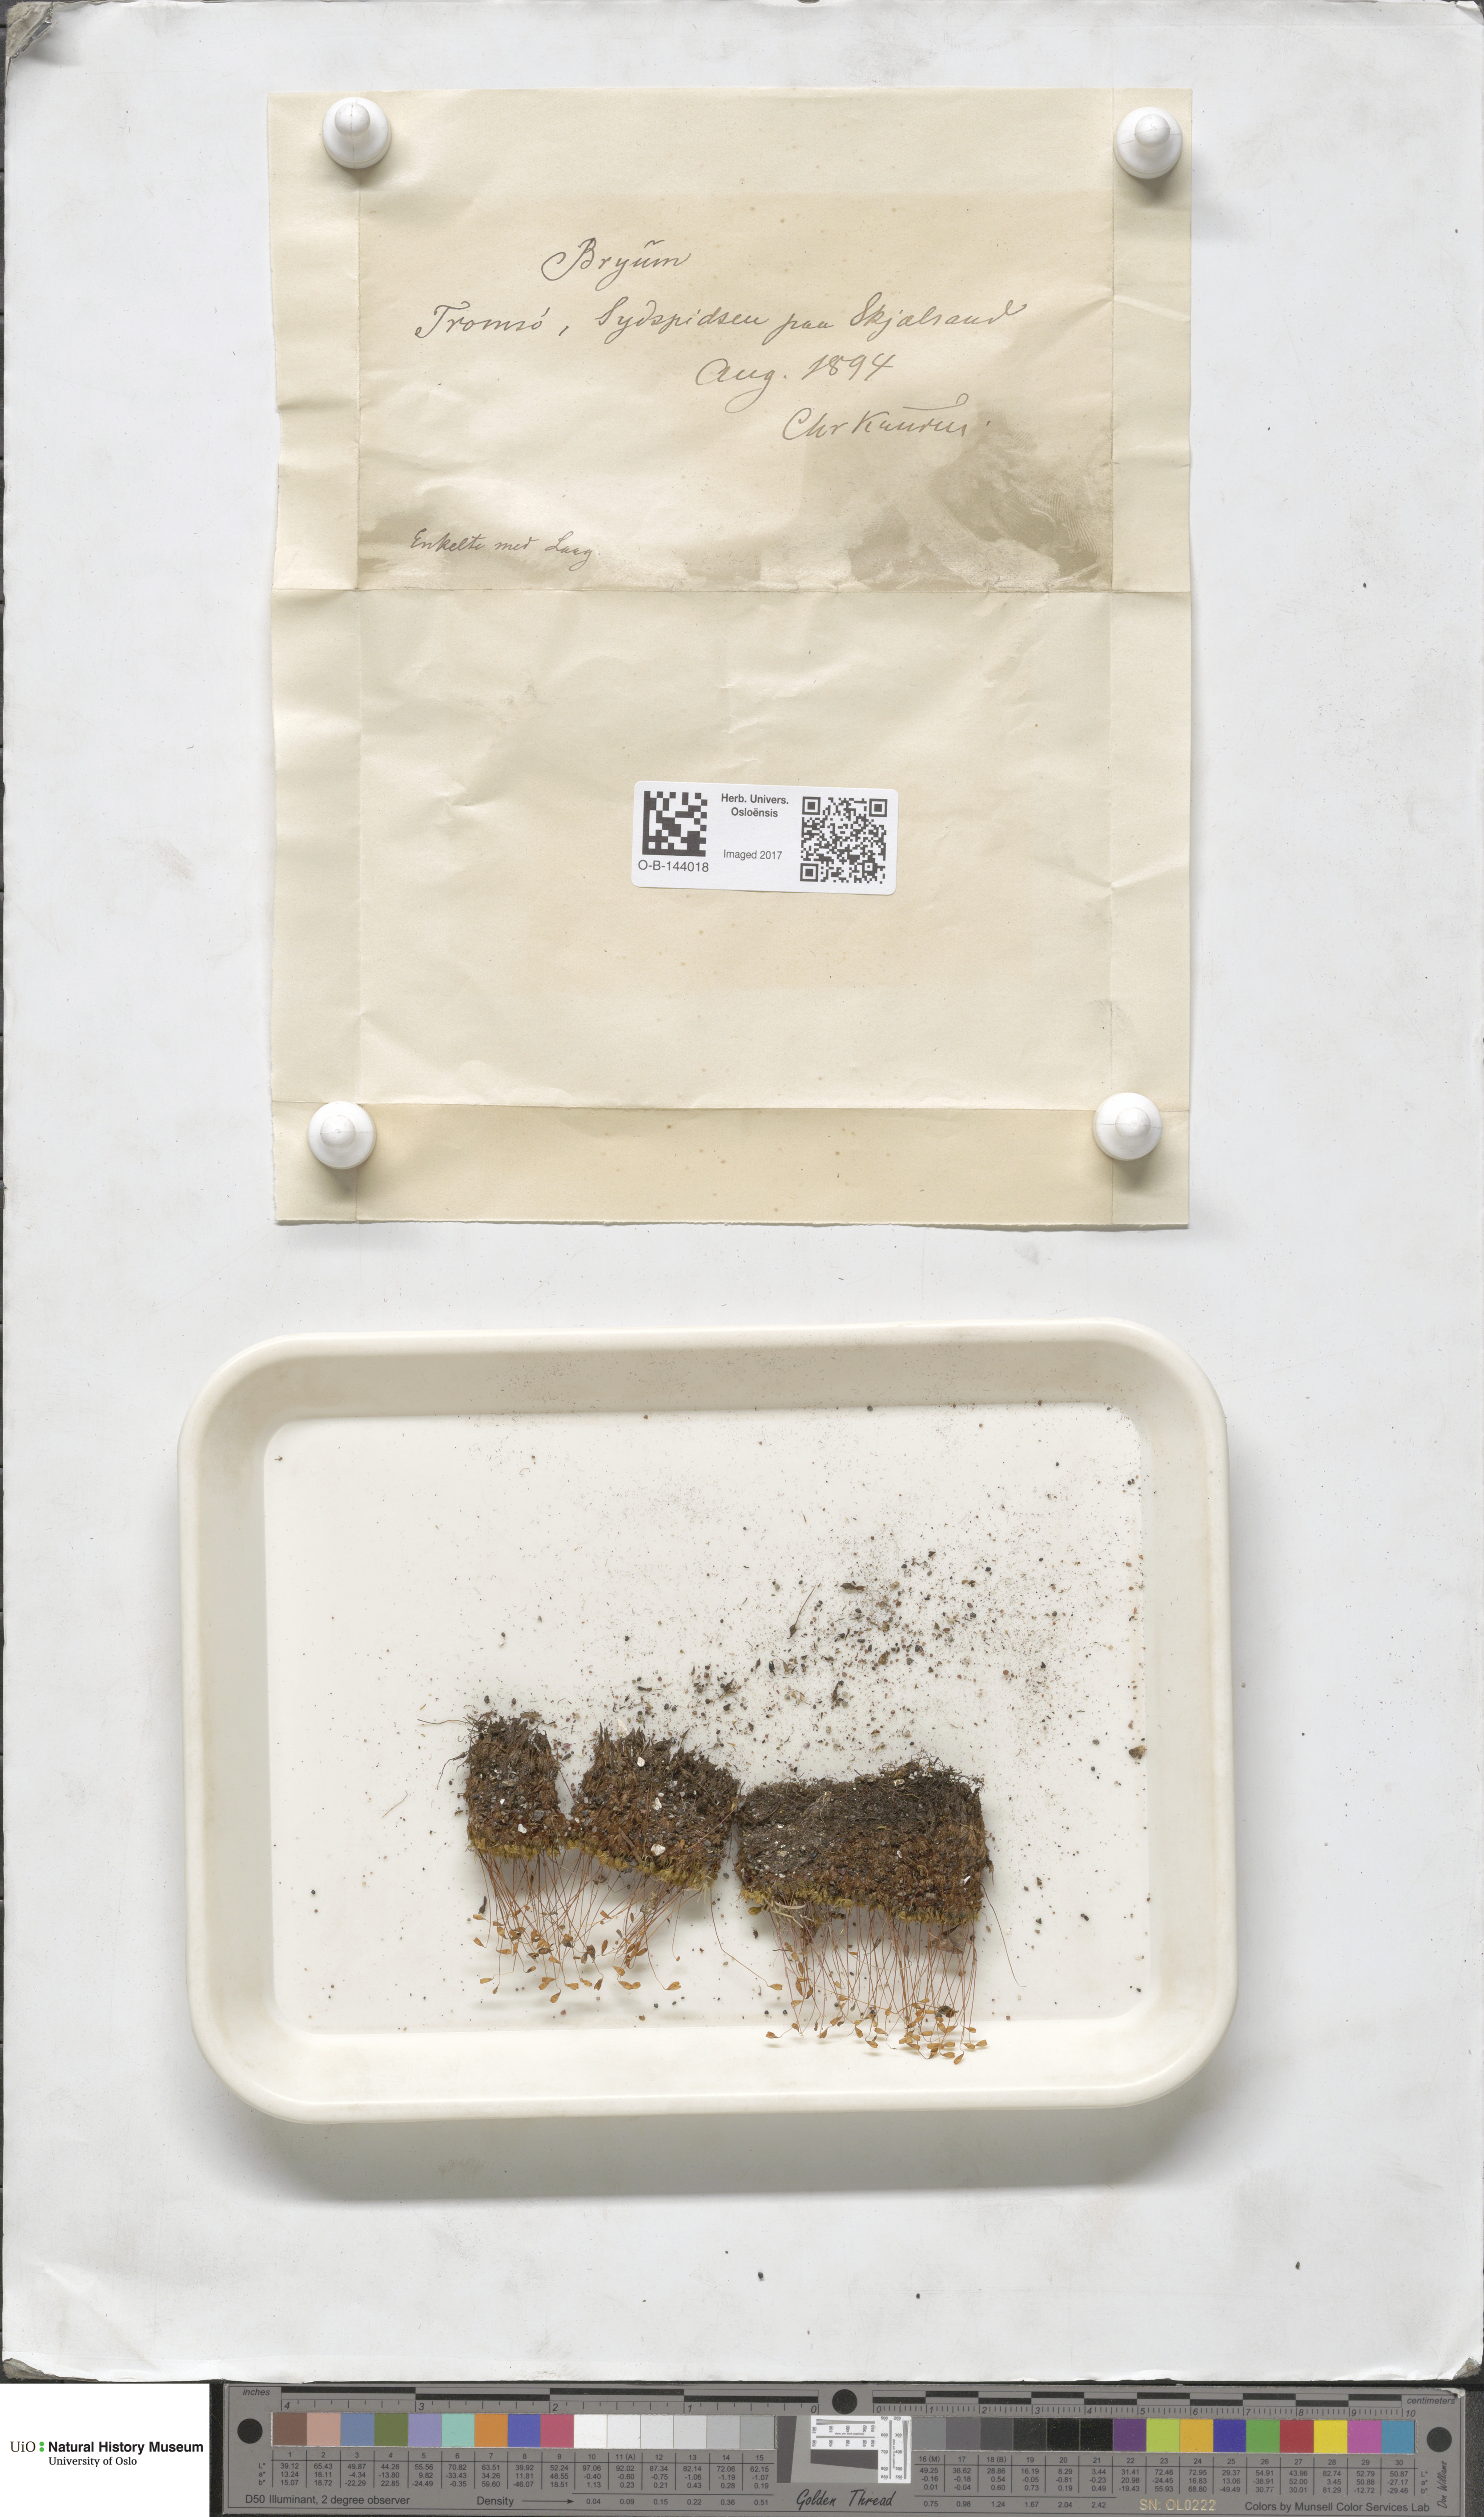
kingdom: Plantae
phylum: Bryophyta
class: Bryopsida
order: Bryales
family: Bryaceae
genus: Bryum
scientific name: Bryum
